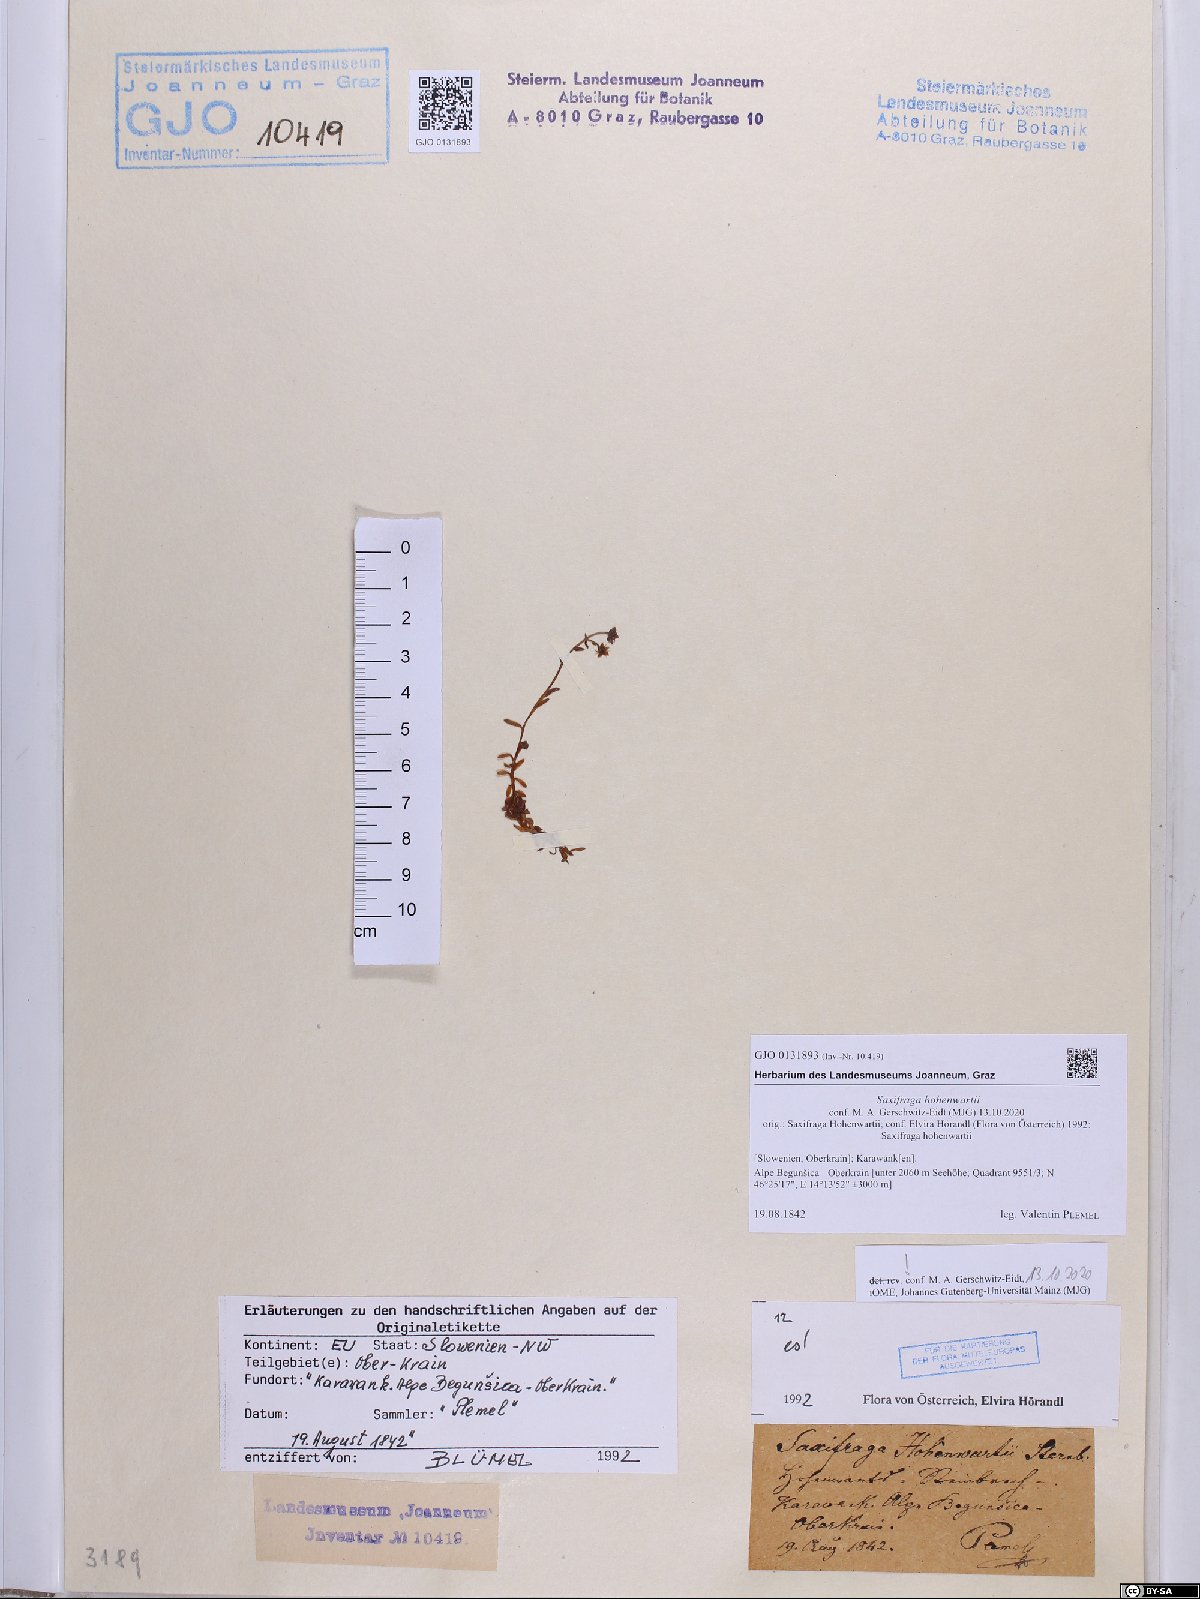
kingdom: Plantae
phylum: Tracheophyta
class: Magnoliopsida
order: Saxifragales
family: Saxifragaceae
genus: Saxifraga
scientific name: Saxifraga hohenwartii
